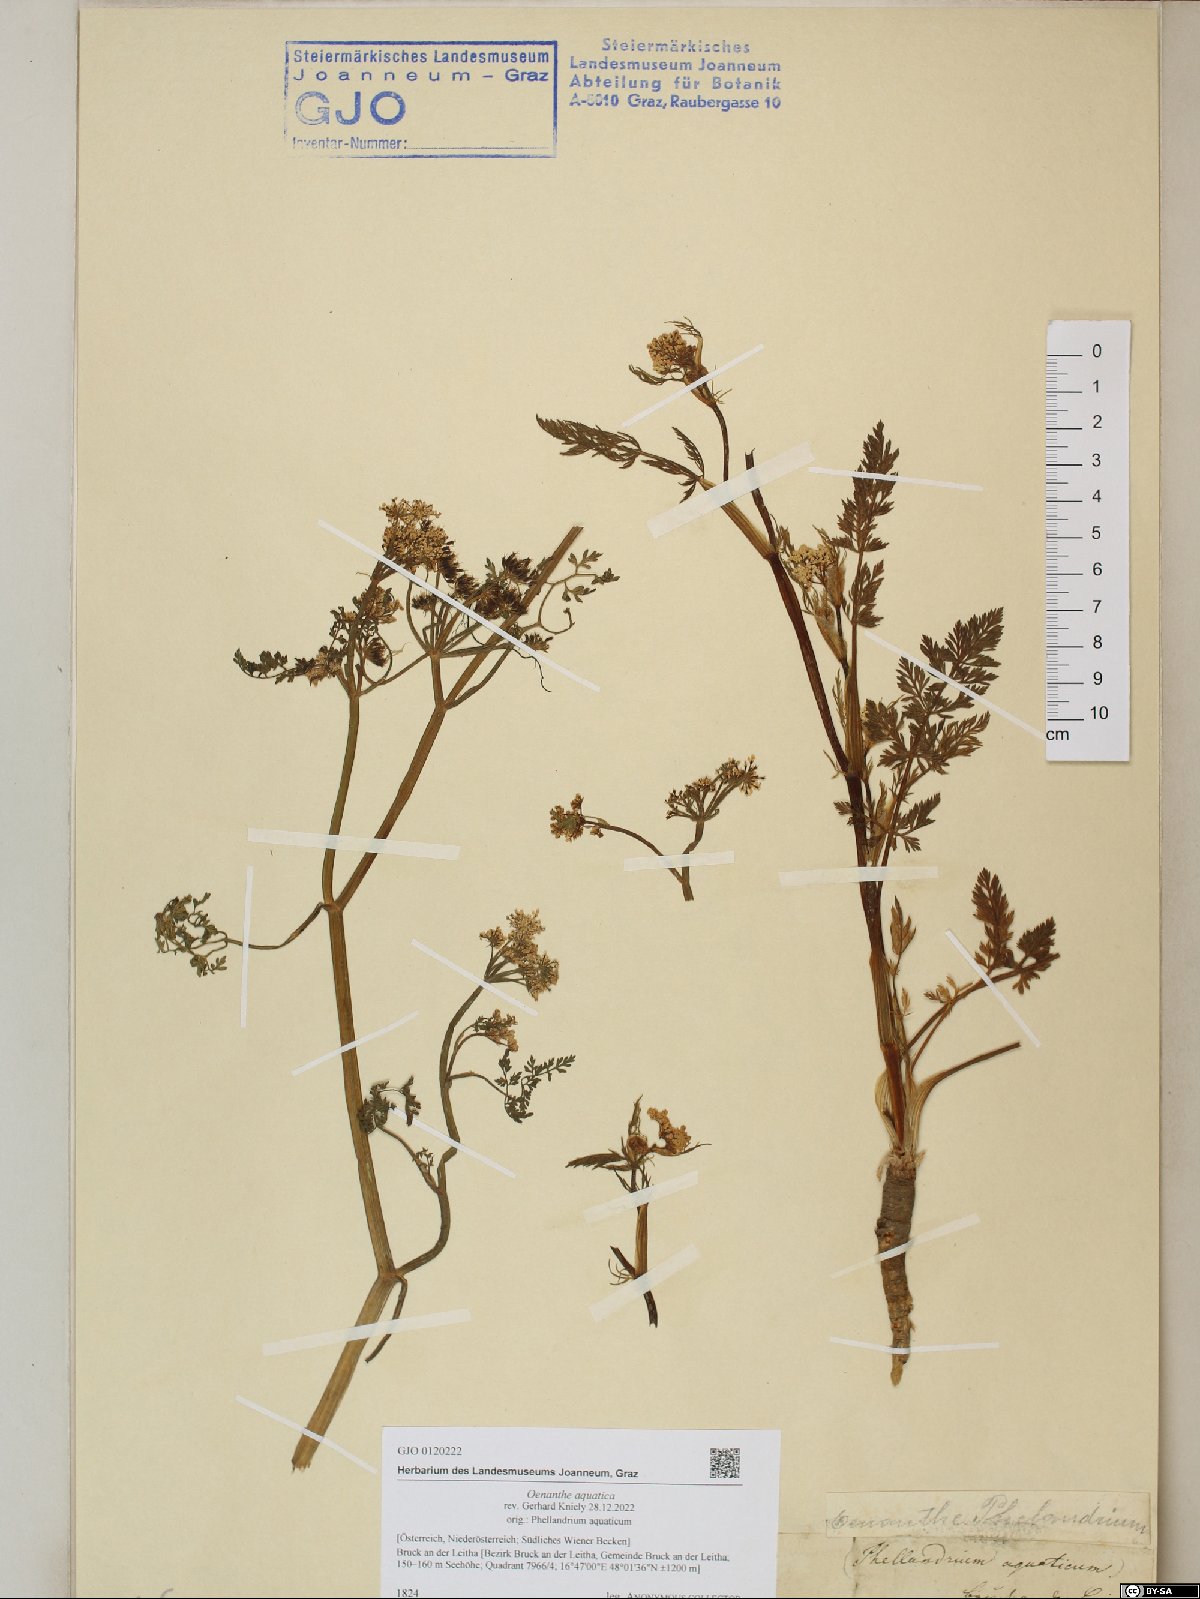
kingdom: Plantae
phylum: Tracheophyta
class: Magnoliopsida
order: Apiales
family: Apiaceae
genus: Oenanthe
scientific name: Oenanthe aquatica
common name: Fine-leaved water-dropwort
